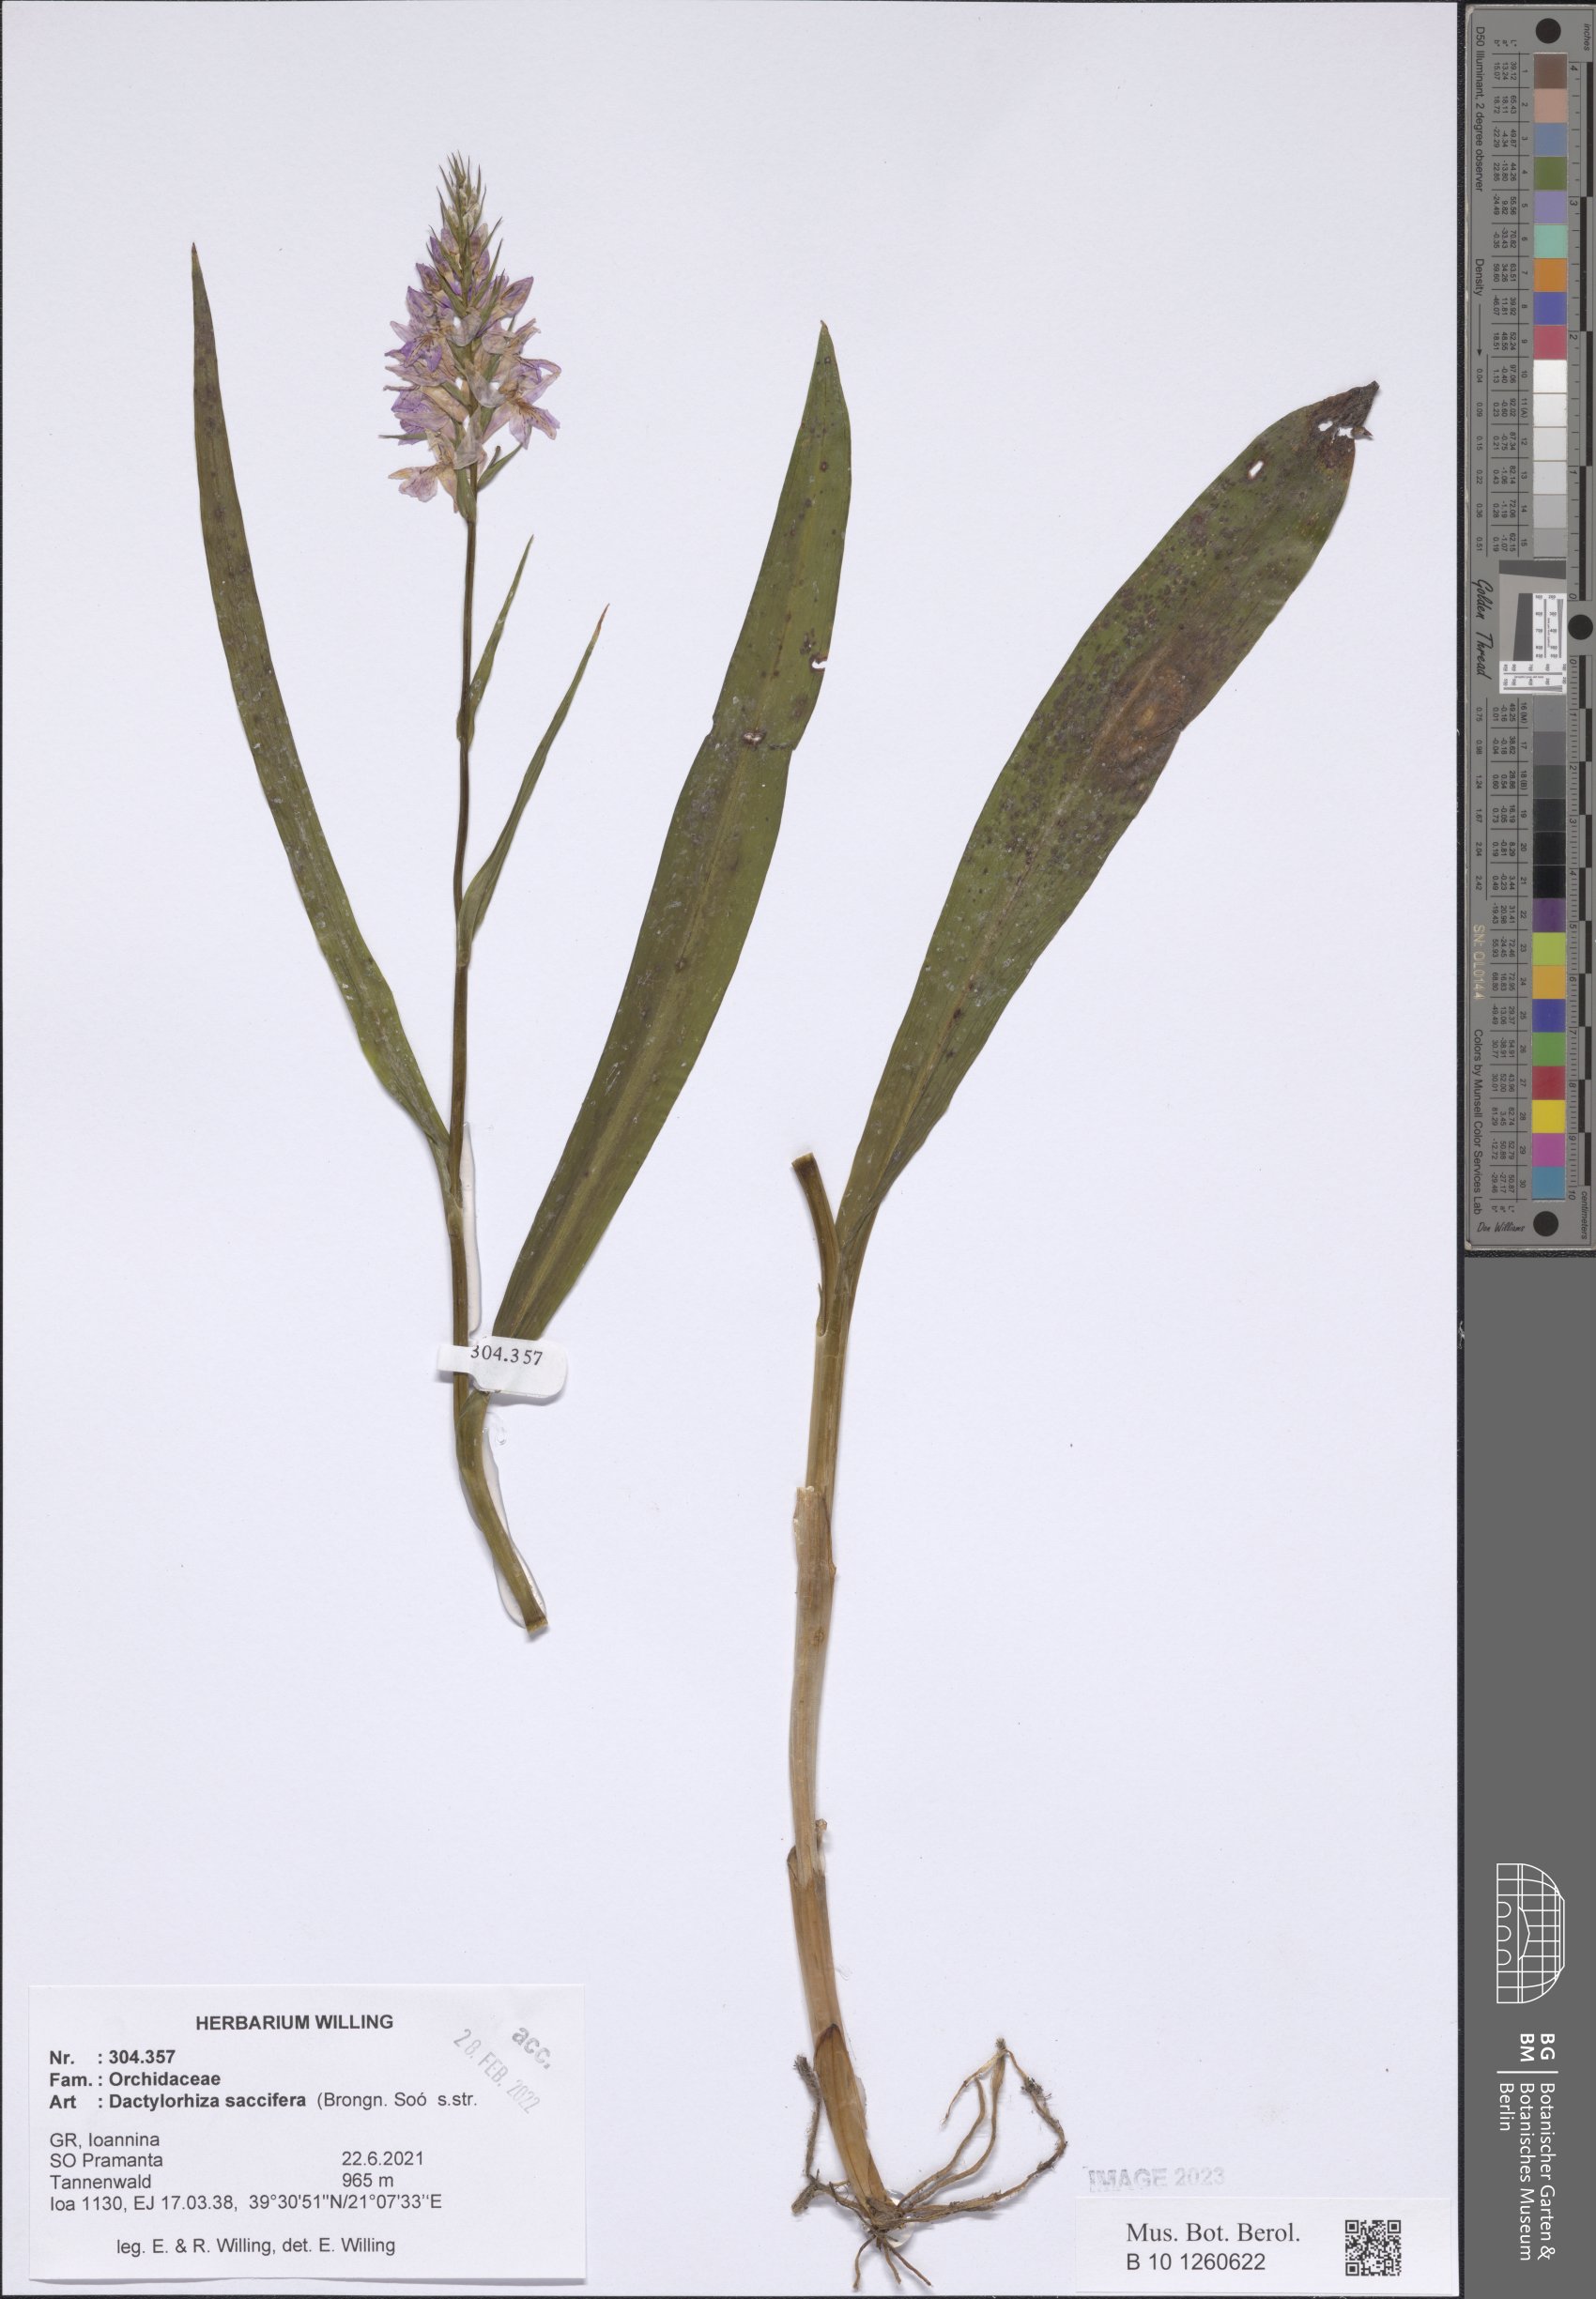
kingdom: Plantae
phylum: Tracheophyta
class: Liliopsida
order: Asparagales
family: Orchidaceae
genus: Dactylorhiza
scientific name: Dactylorhiza maculata
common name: Heath spotted-orchid
